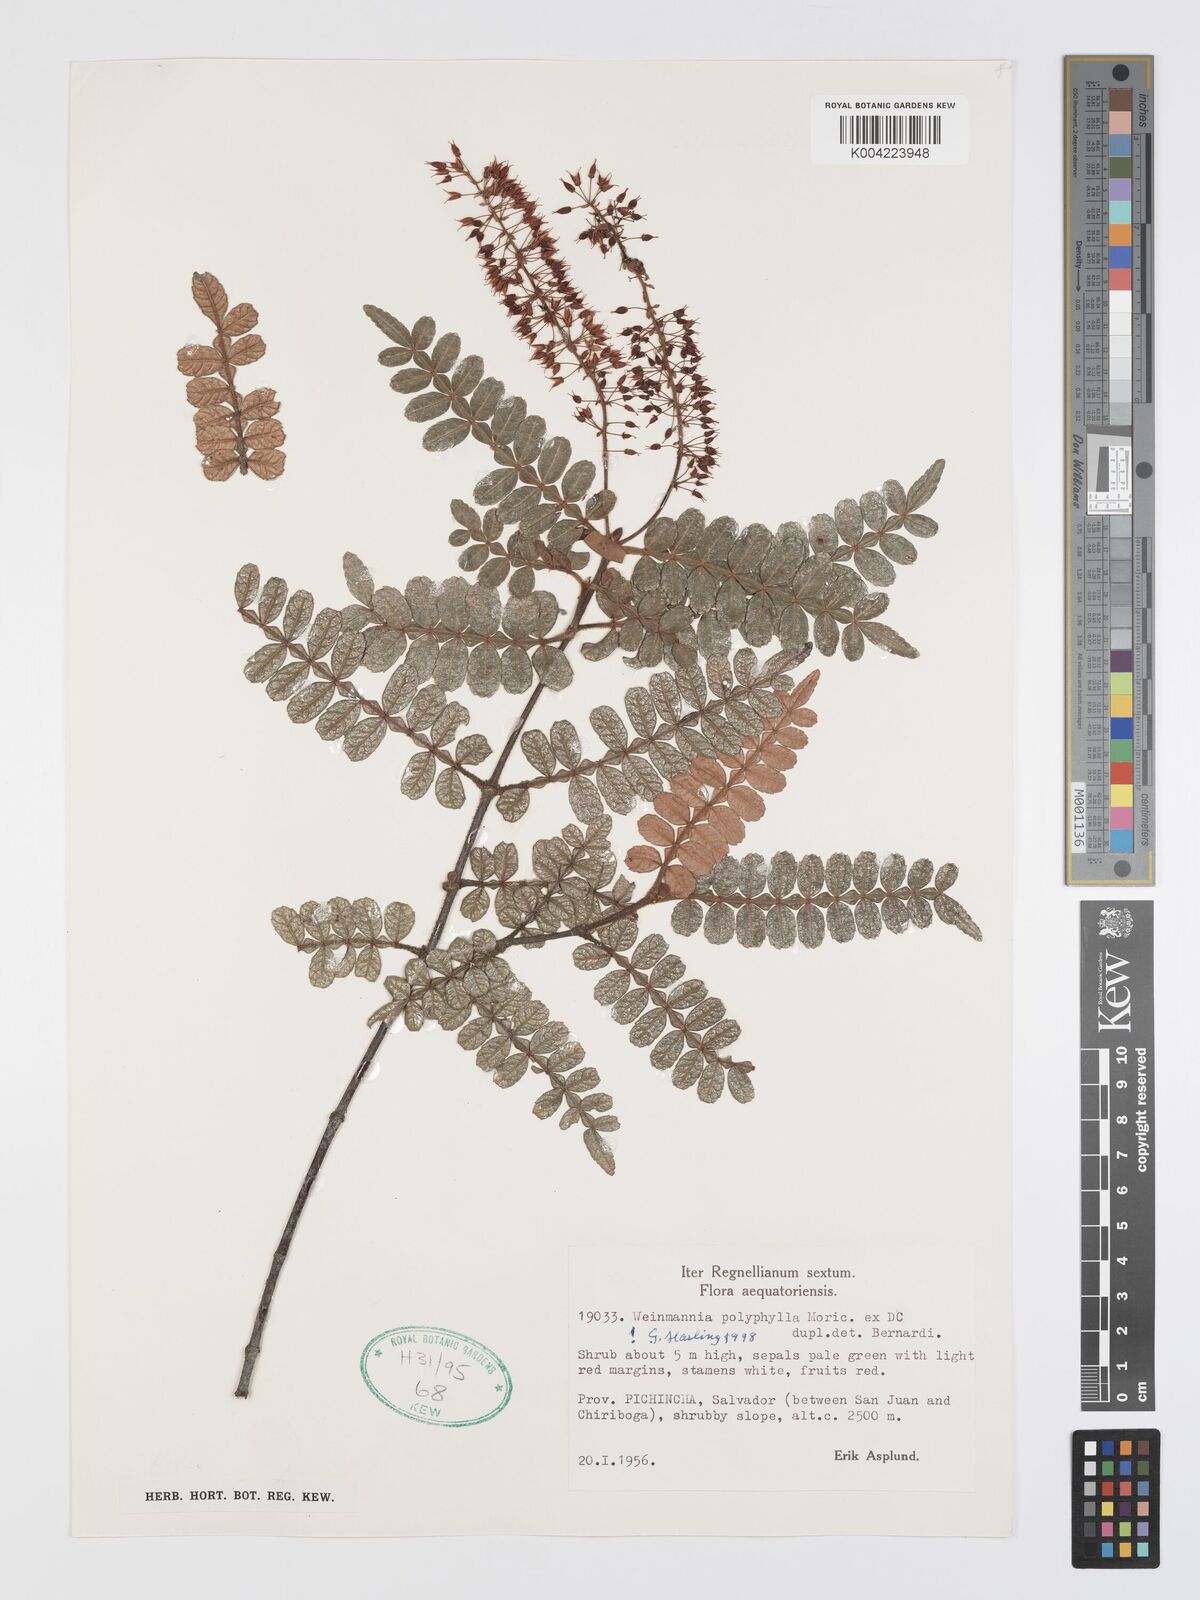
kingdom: Plantae
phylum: Tracheophyta
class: Magnoliopsida
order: Oxalidales
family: Cunoniaceae
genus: Weinmannia
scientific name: Weinmannia polyphylla
